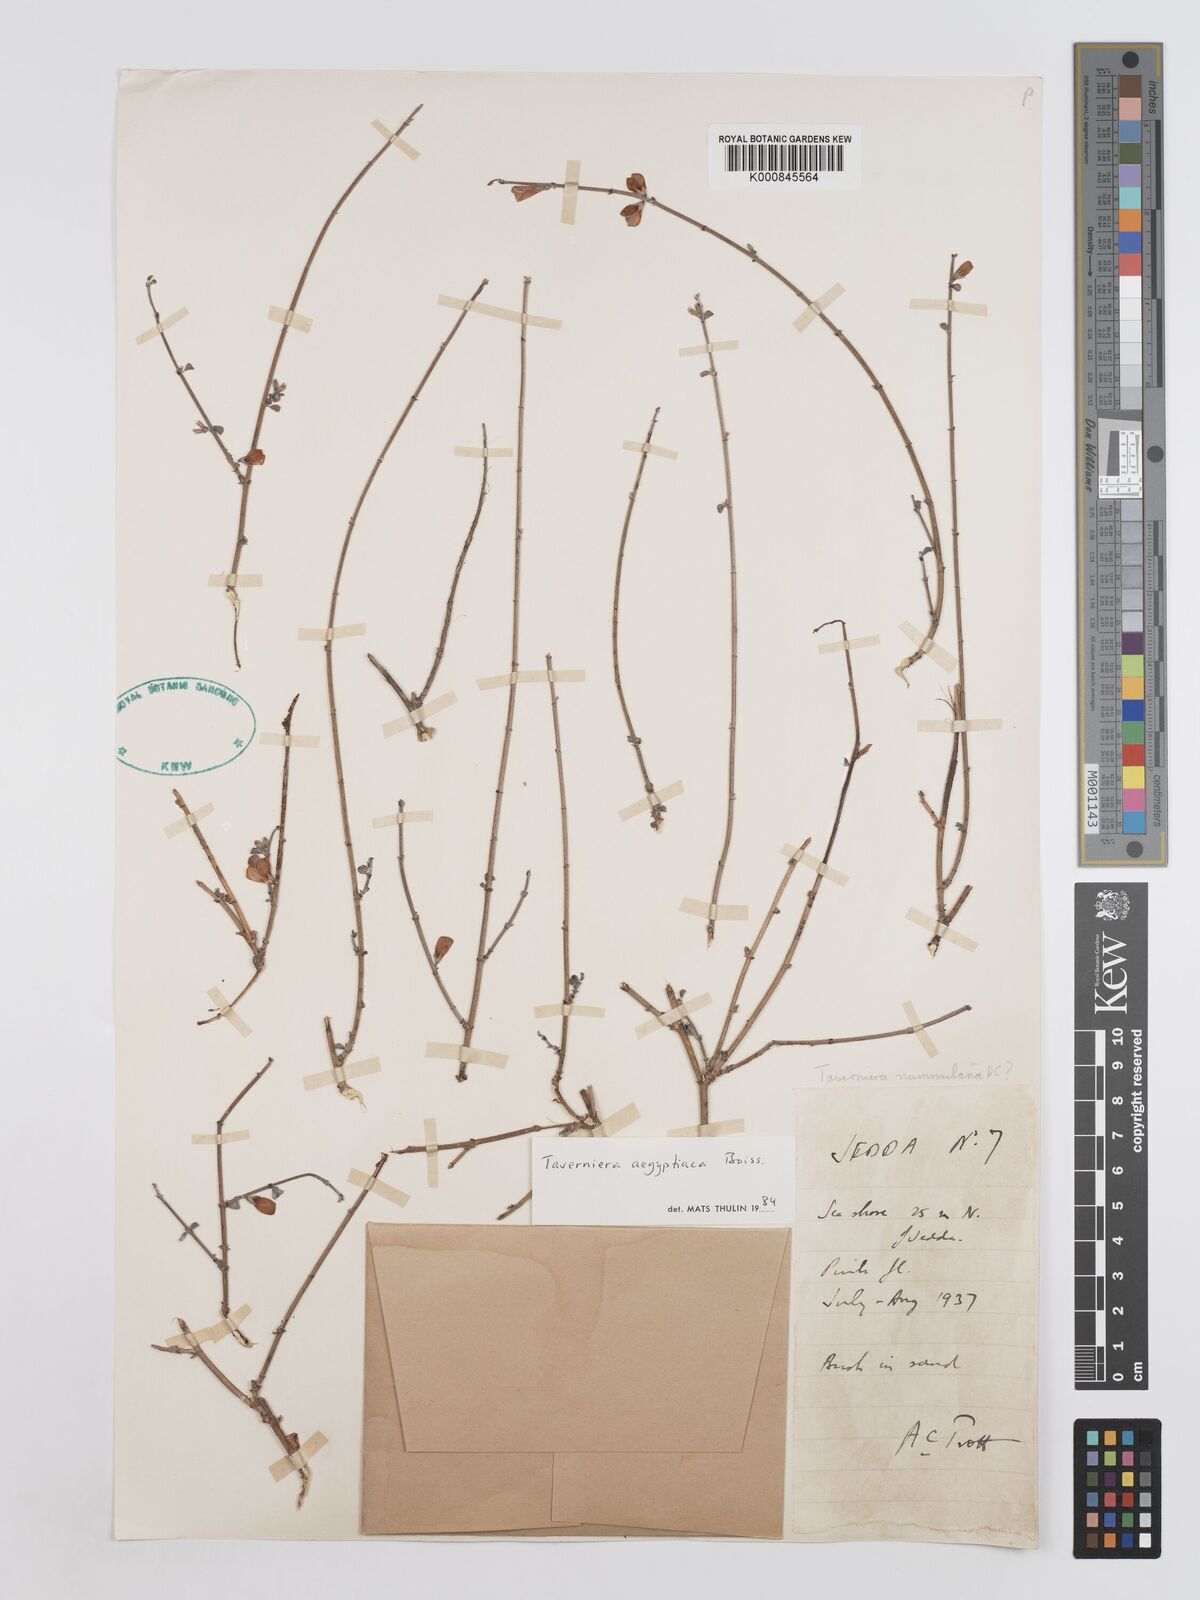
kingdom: Plantae
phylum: Tracheophyta
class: Magnoliopsida
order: Fabales
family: Fabaceae
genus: Taverniera
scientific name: Taverniera aegyptiaca
